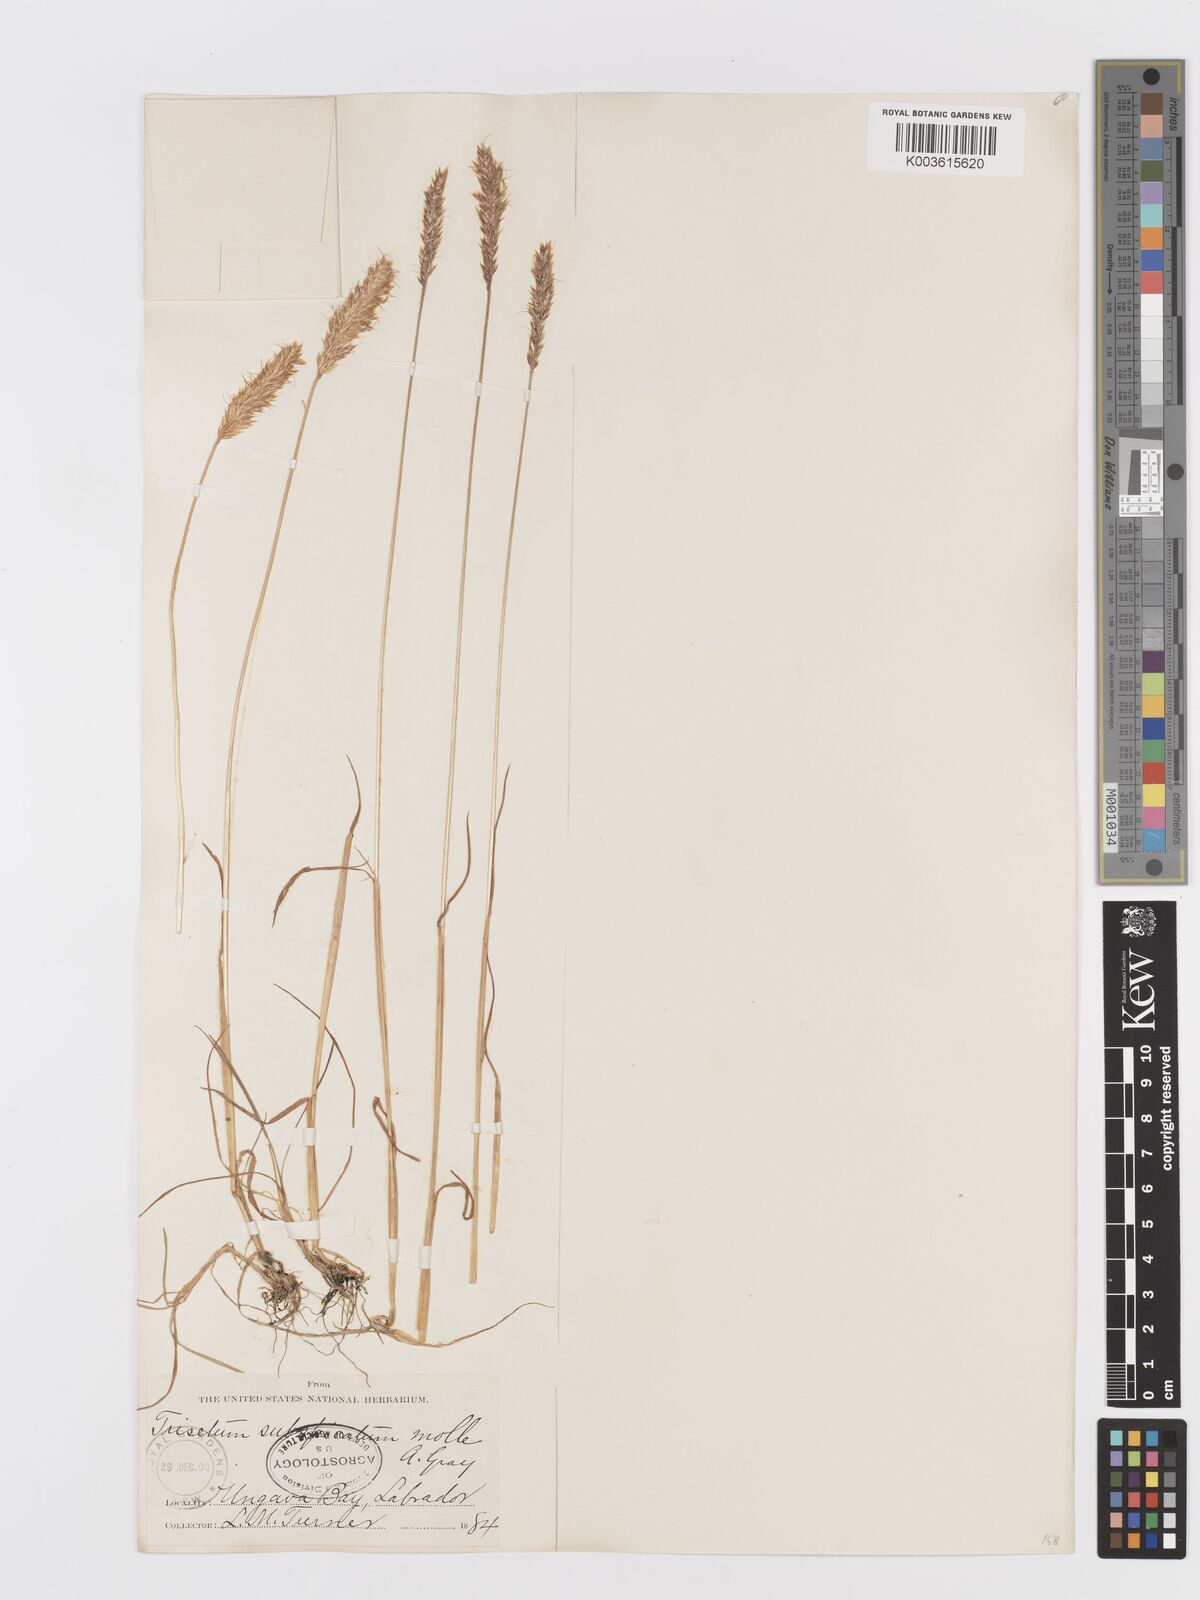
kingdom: Plantae
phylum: Tracheophyta
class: Liliopsida
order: Poales
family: Poaceae
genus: Koeleria
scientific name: Koeleria spicata
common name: Mountain trisetum
